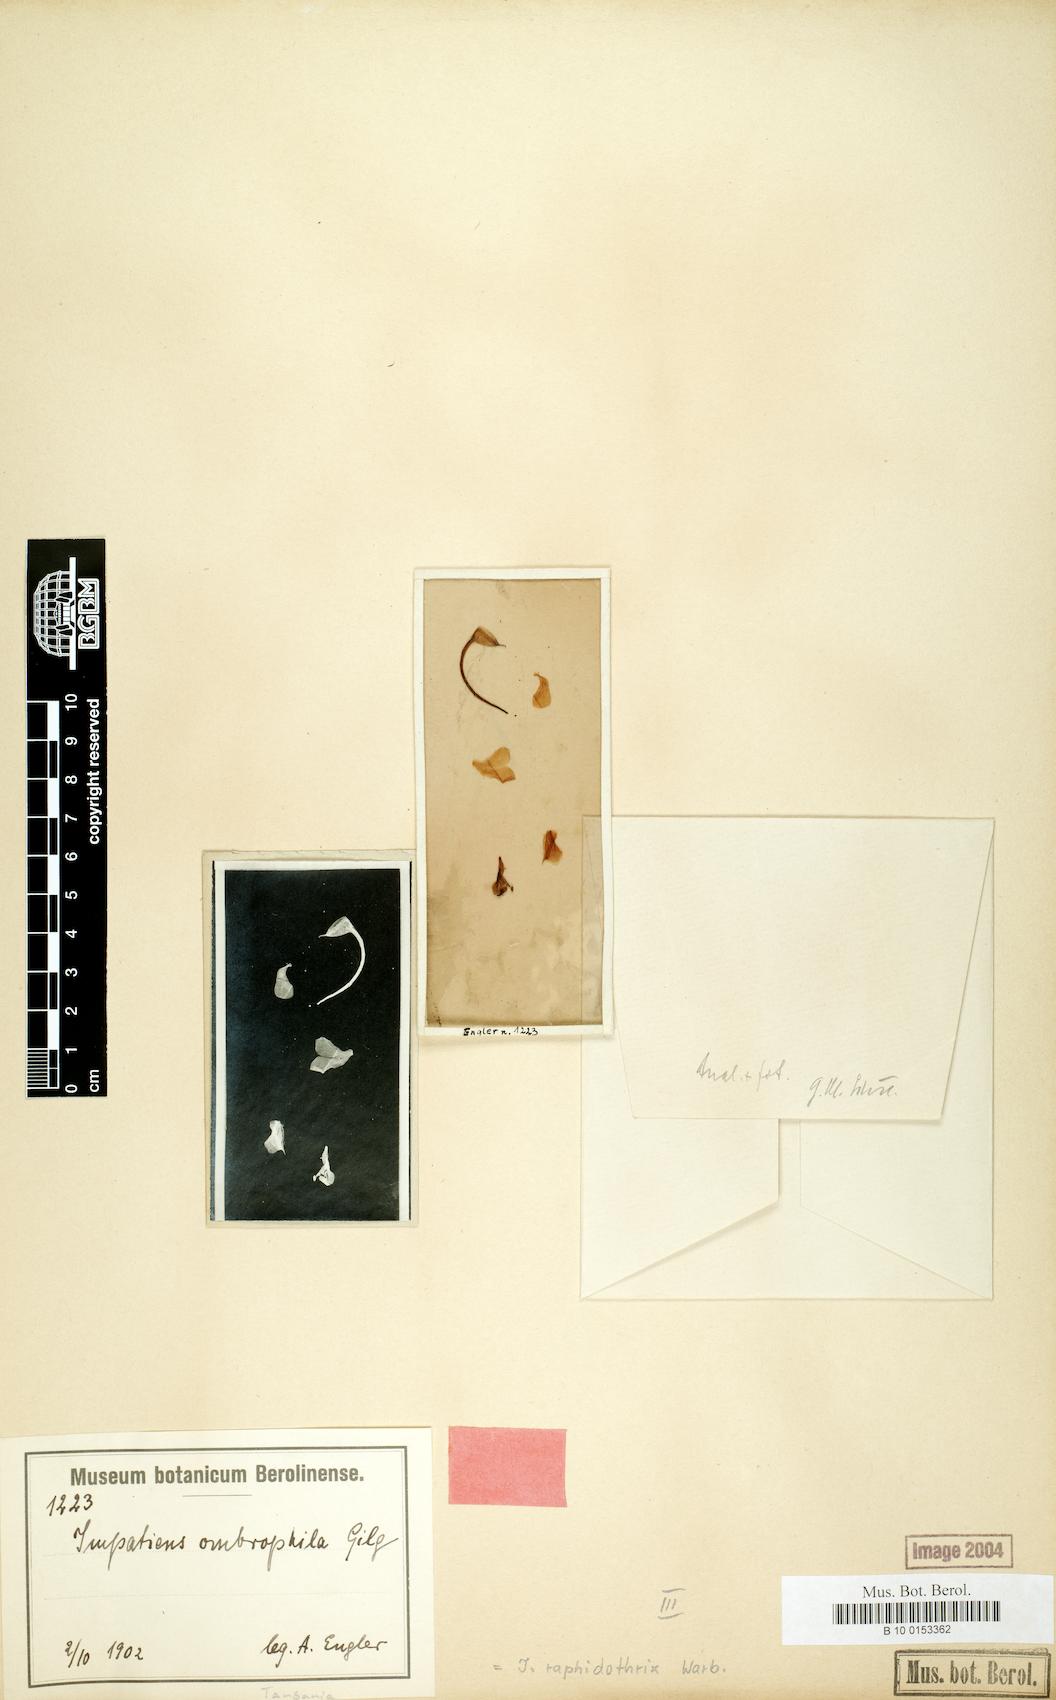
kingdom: Plantae
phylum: Tracheophyta
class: Magnoliopsida
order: Ericales
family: Balsaminaceae
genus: Impatiens
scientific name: Impatiens raphidothrix
